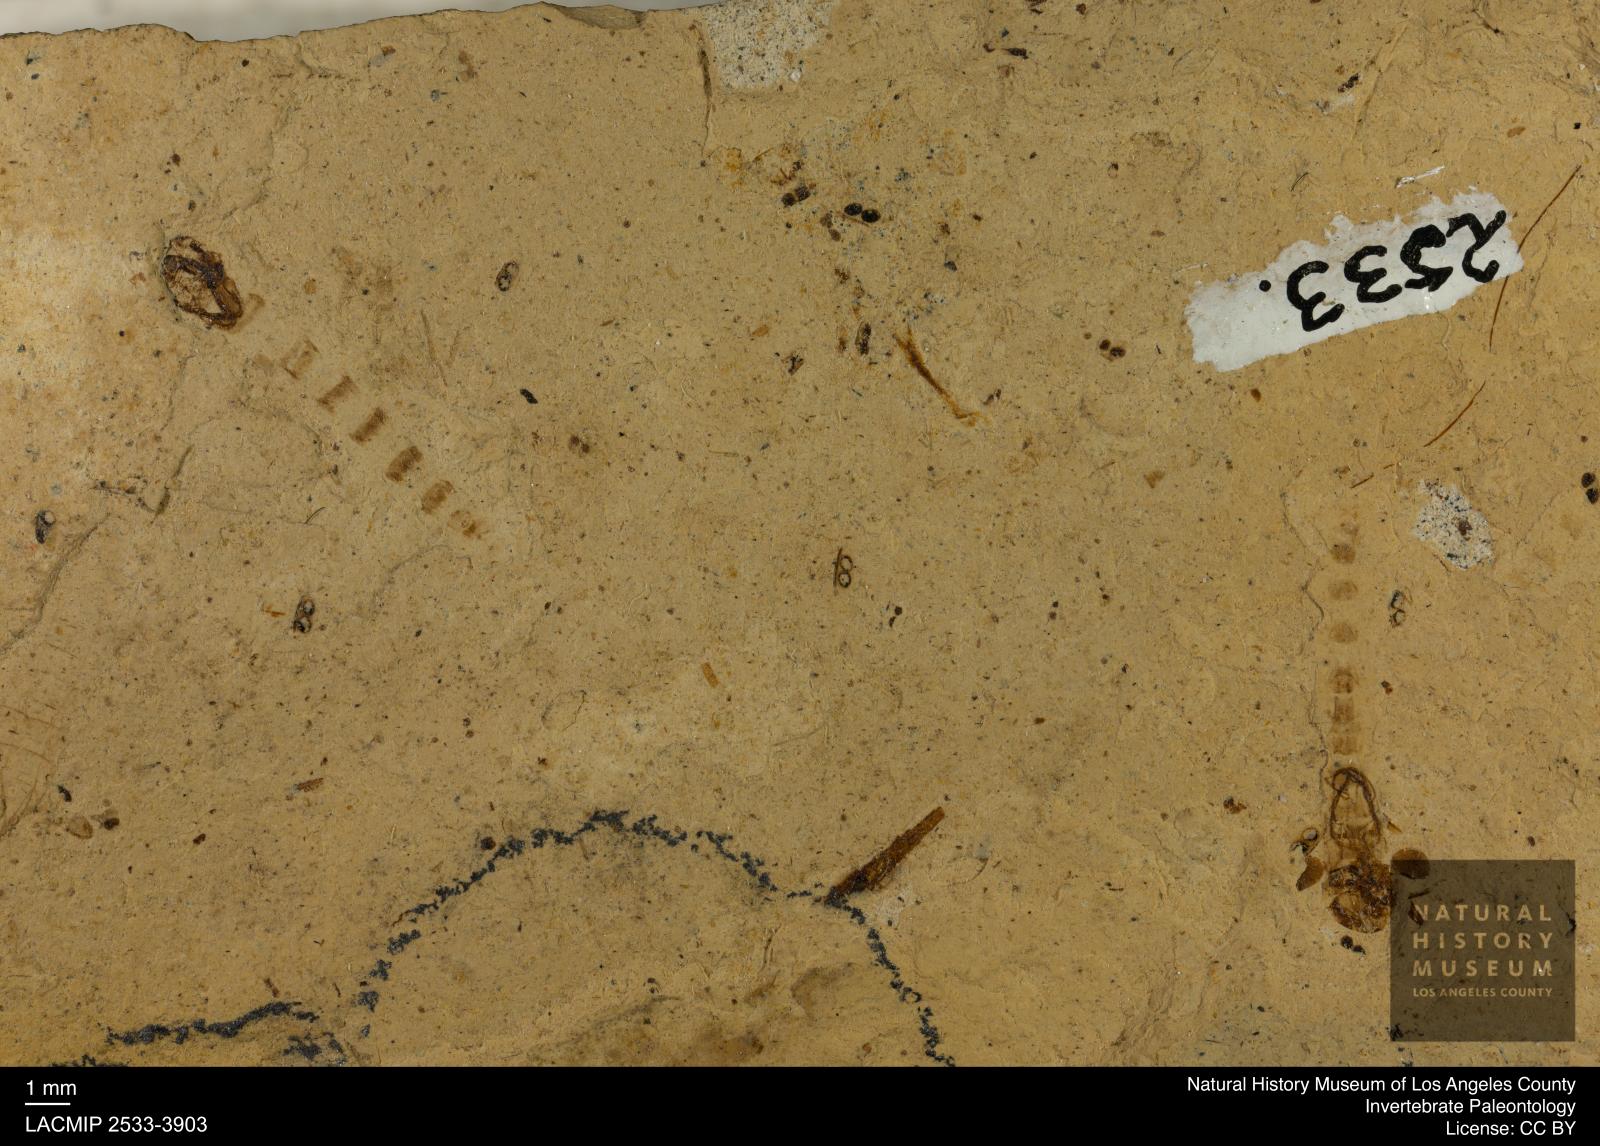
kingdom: Animalia
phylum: Arthropoda
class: Insecta
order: Diptera
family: Chironomidae
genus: Pelopiina
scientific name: Pelopiina
